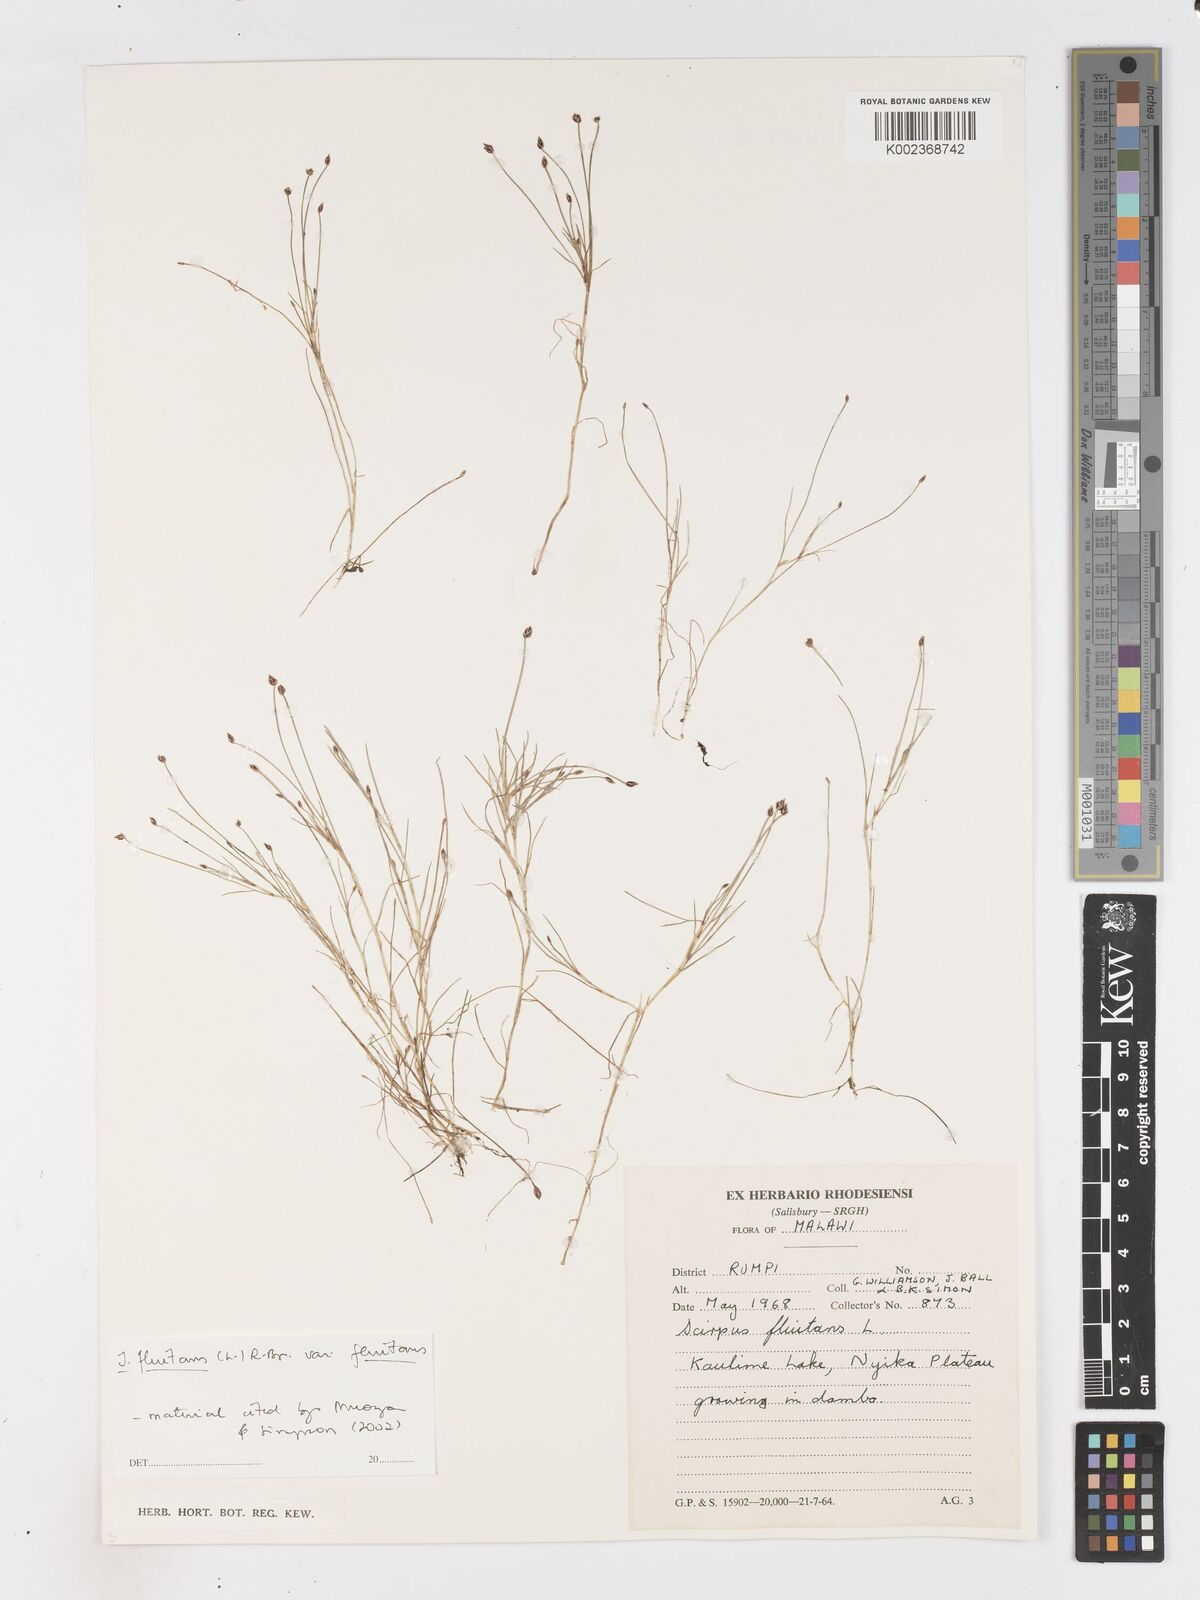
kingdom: Plantae
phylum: Tracheophyta
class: Liliopsida
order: Poales
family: Cyperaceae
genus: Isolepis
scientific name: Isolepis fluitans
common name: Floating club-rush
